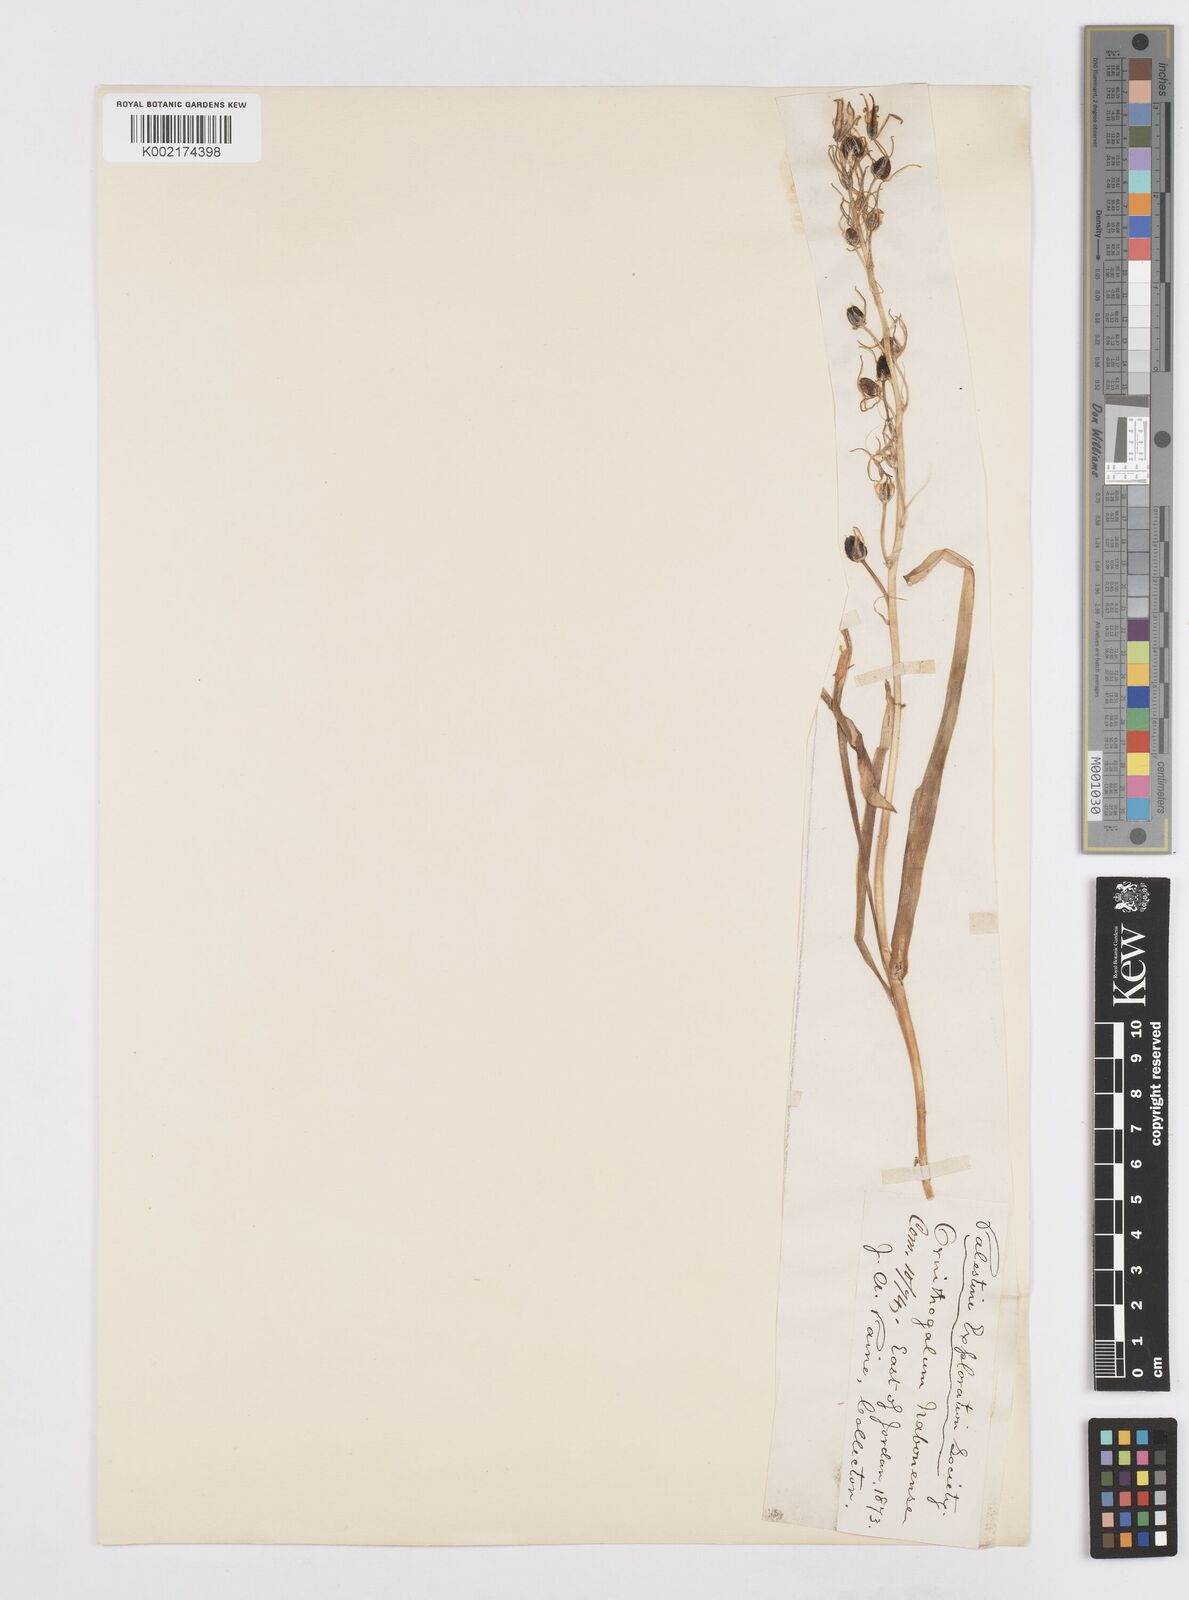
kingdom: Plantae
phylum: Tracheophyta
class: Liliopsida
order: Asparagales
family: Asparagaceae
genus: Ornithogalum
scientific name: Ornithogalum narbonense
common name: Bath-asparagus
